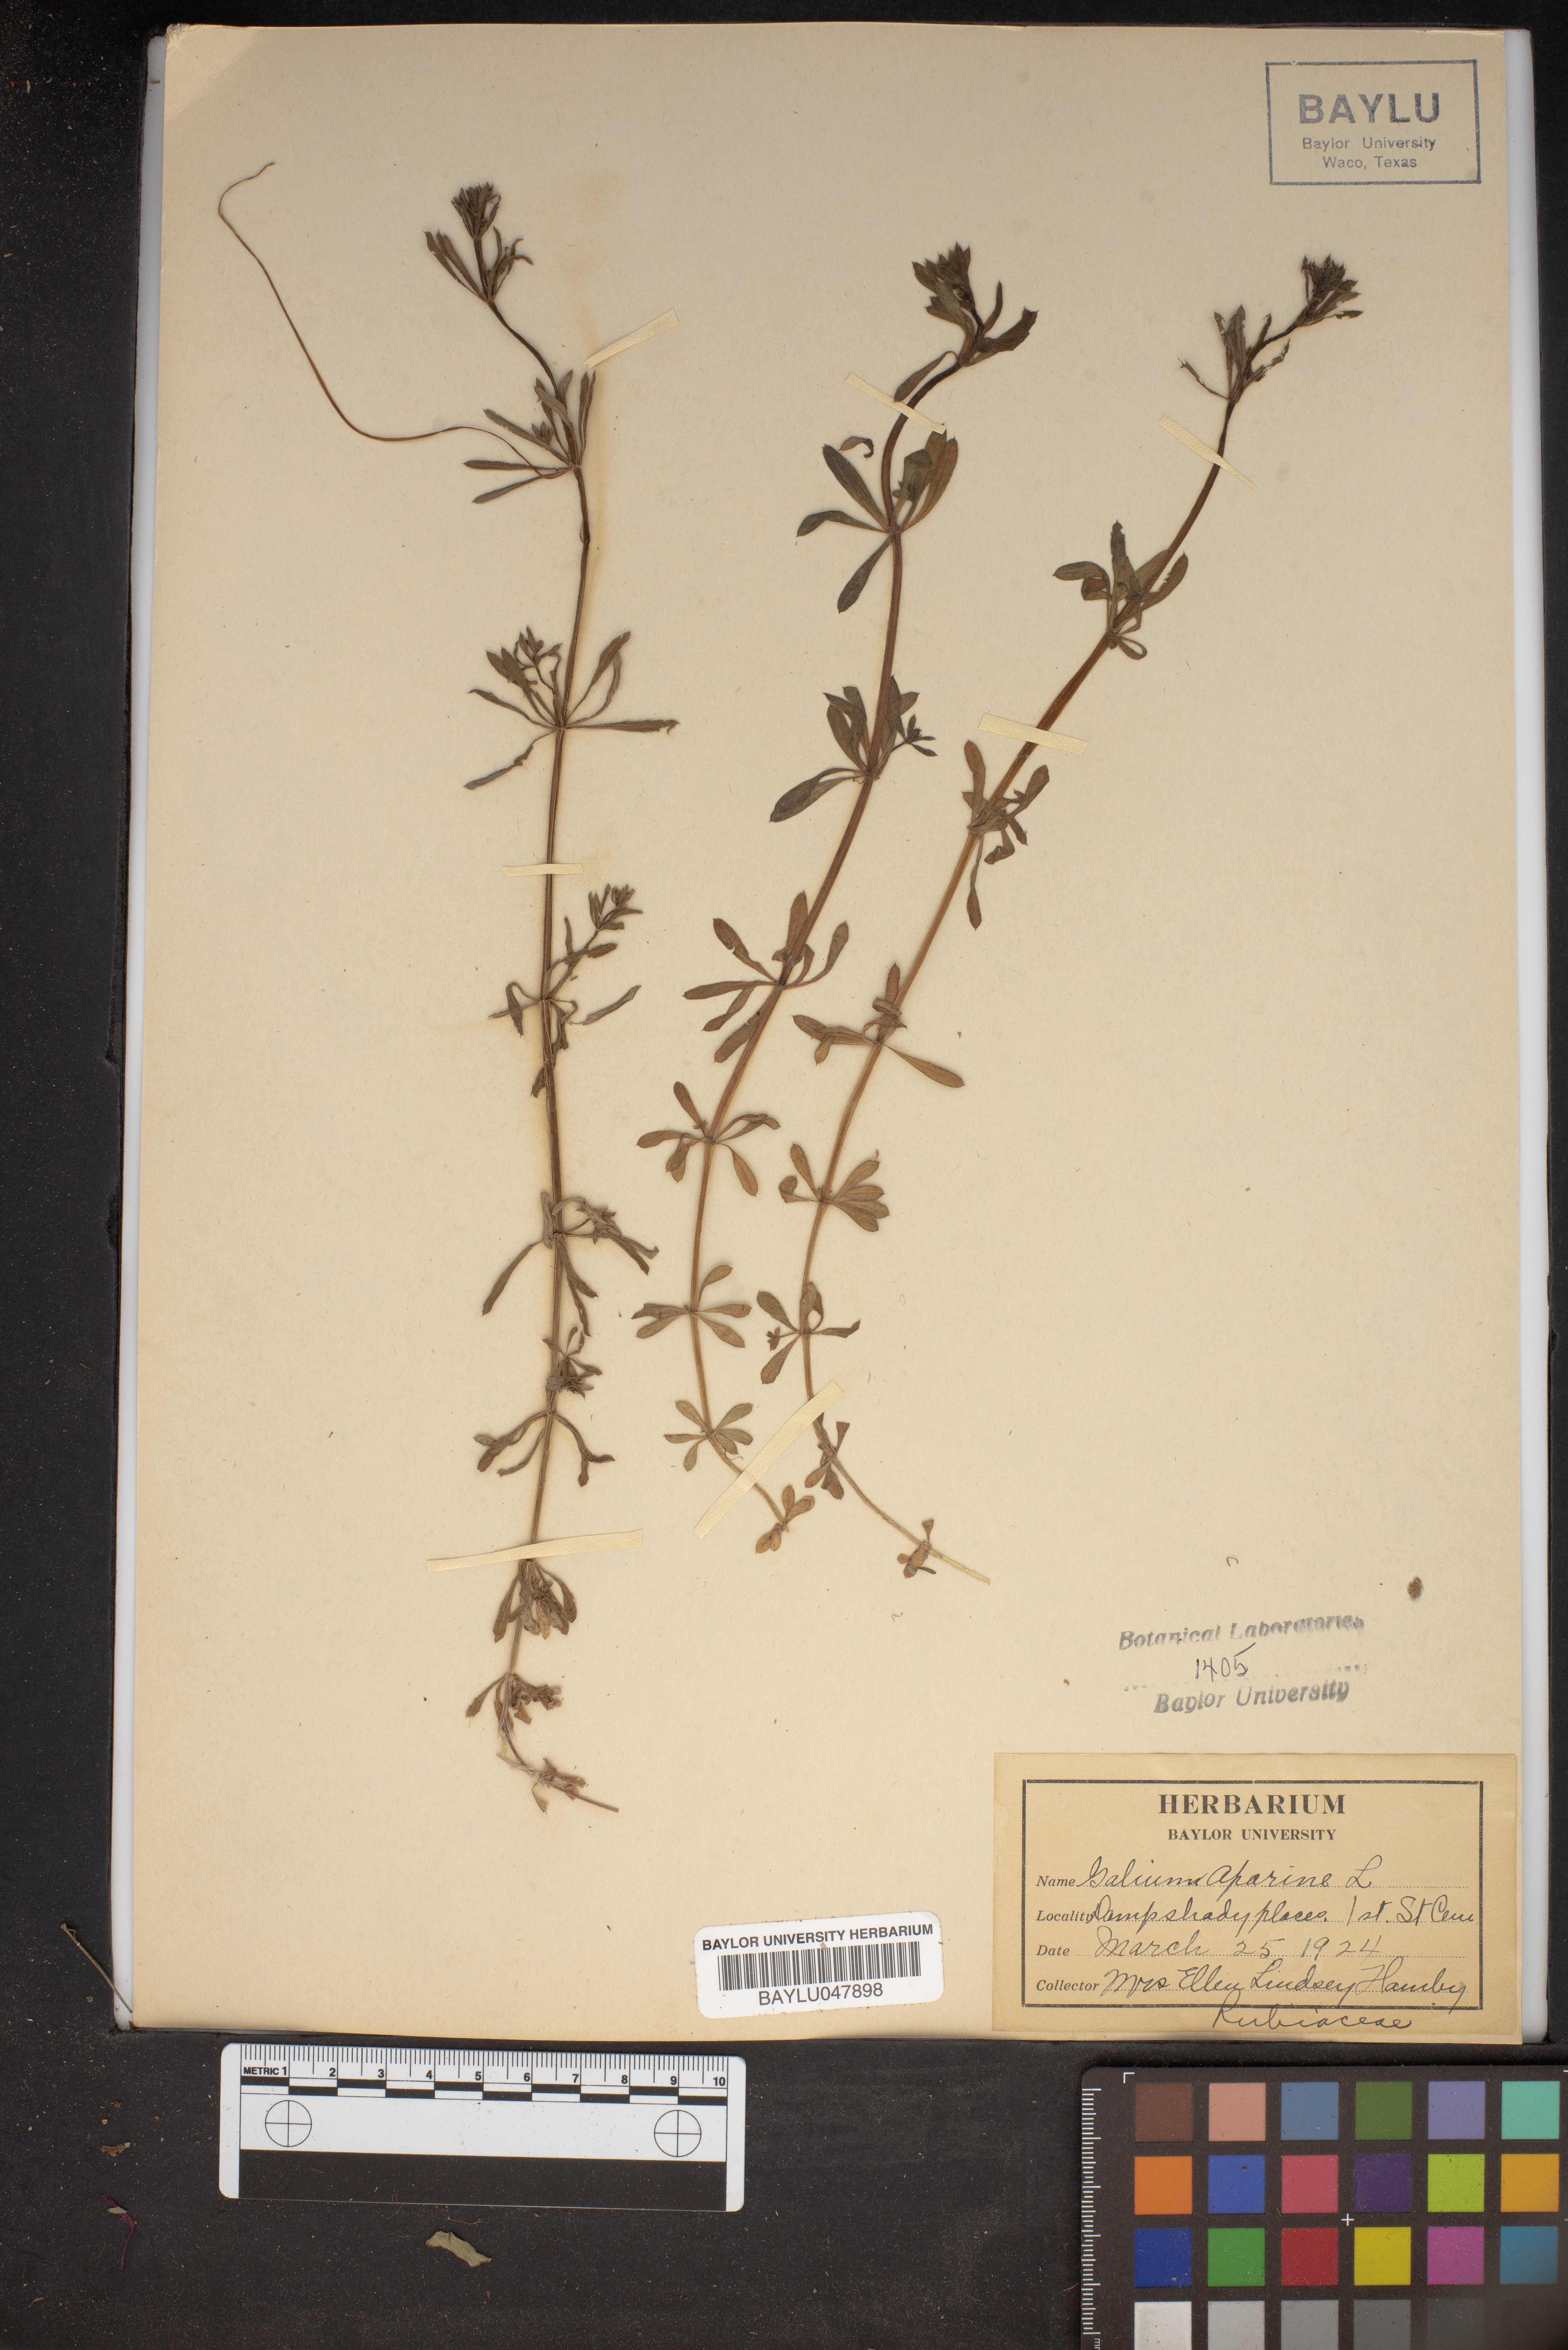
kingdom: Plantae
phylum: Tracheophyta
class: Magnoliopsida
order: Gentianales
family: Rubiaceae
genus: Galium
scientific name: Galium aparine
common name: Cleavers
